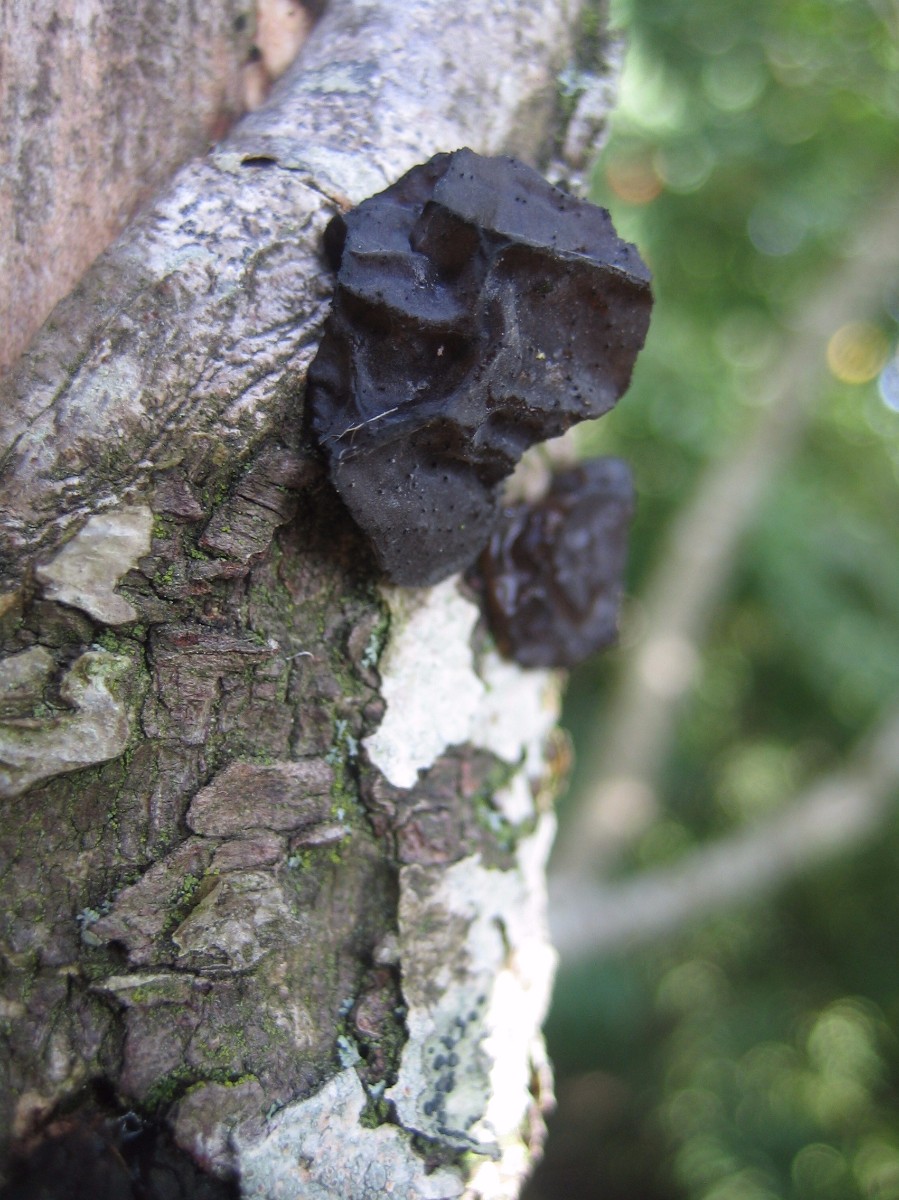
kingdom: Fungi
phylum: Basidiomycota
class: Agaricomycetes
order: Auriculariales
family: Auriculariaceae
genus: Exidia
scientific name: Exidia glandulosa
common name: ege-bævretop
